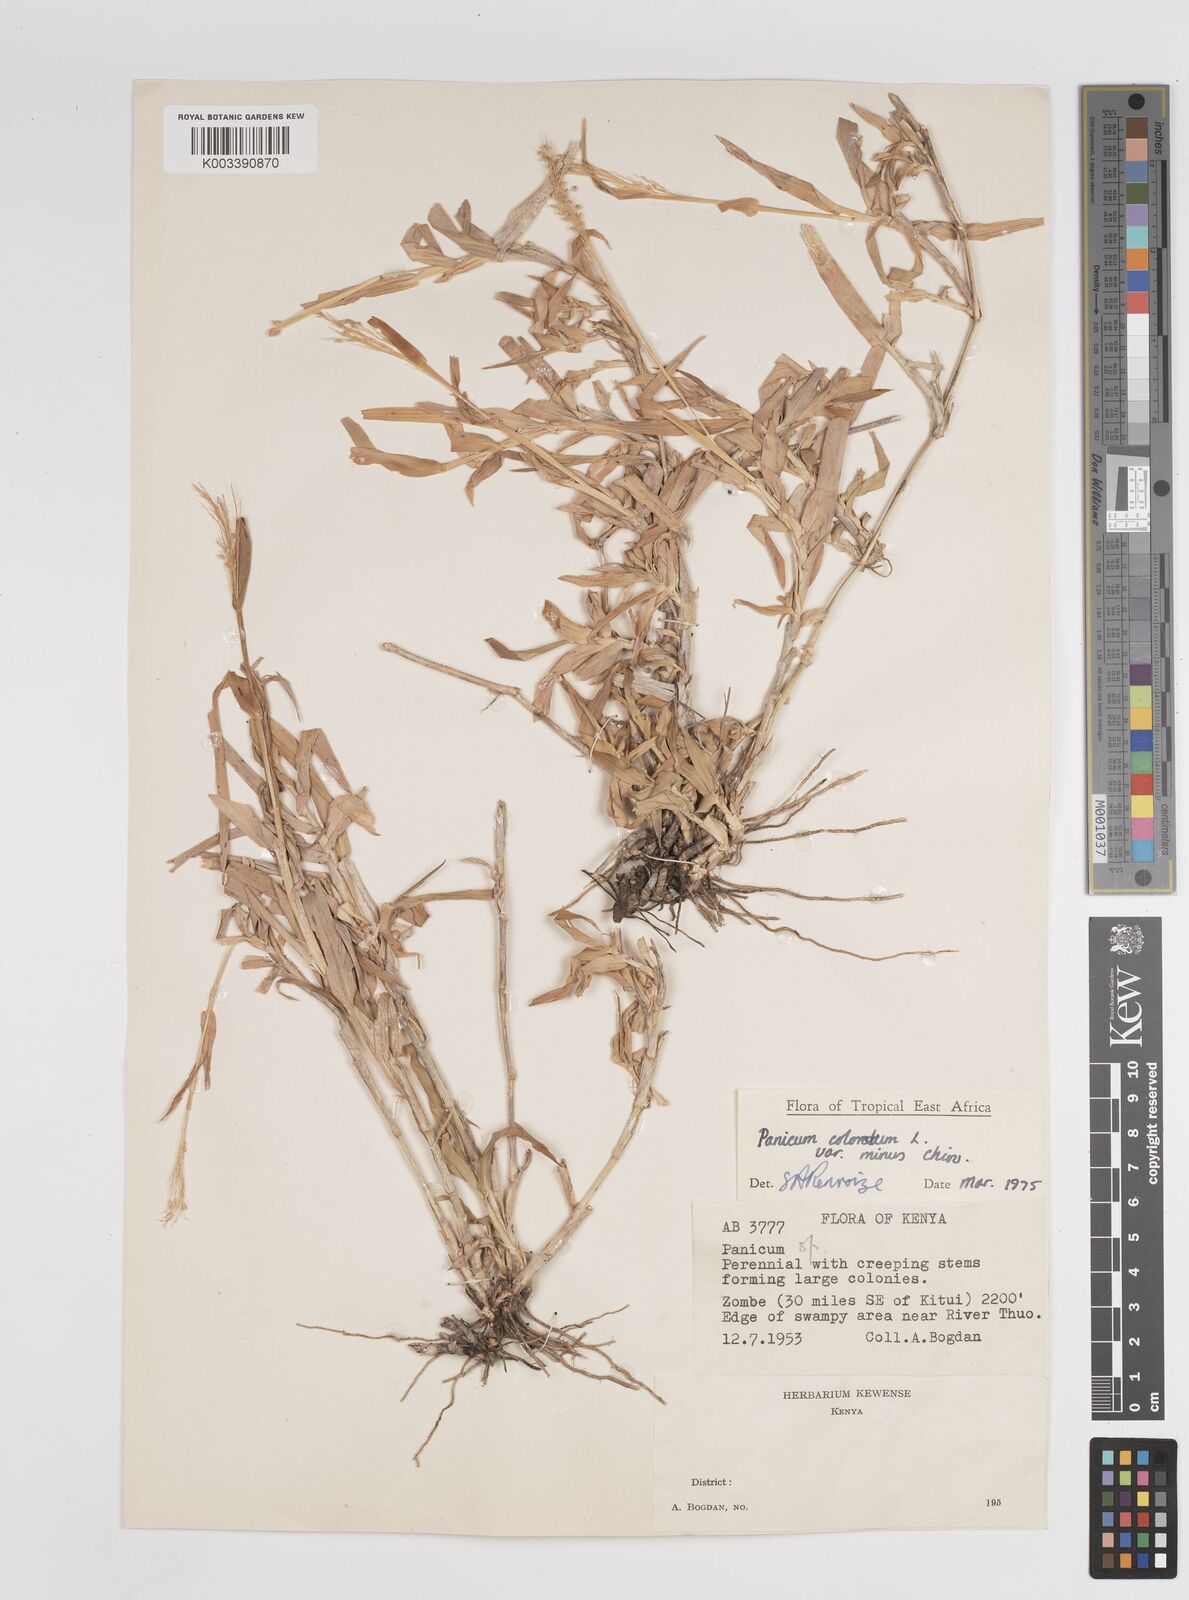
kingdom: Plantae
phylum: Tracheophyta
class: Liliopsida
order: Poales
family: Poaceae
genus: Panicum
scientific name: Panicum coloratum
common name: Kleingrass
